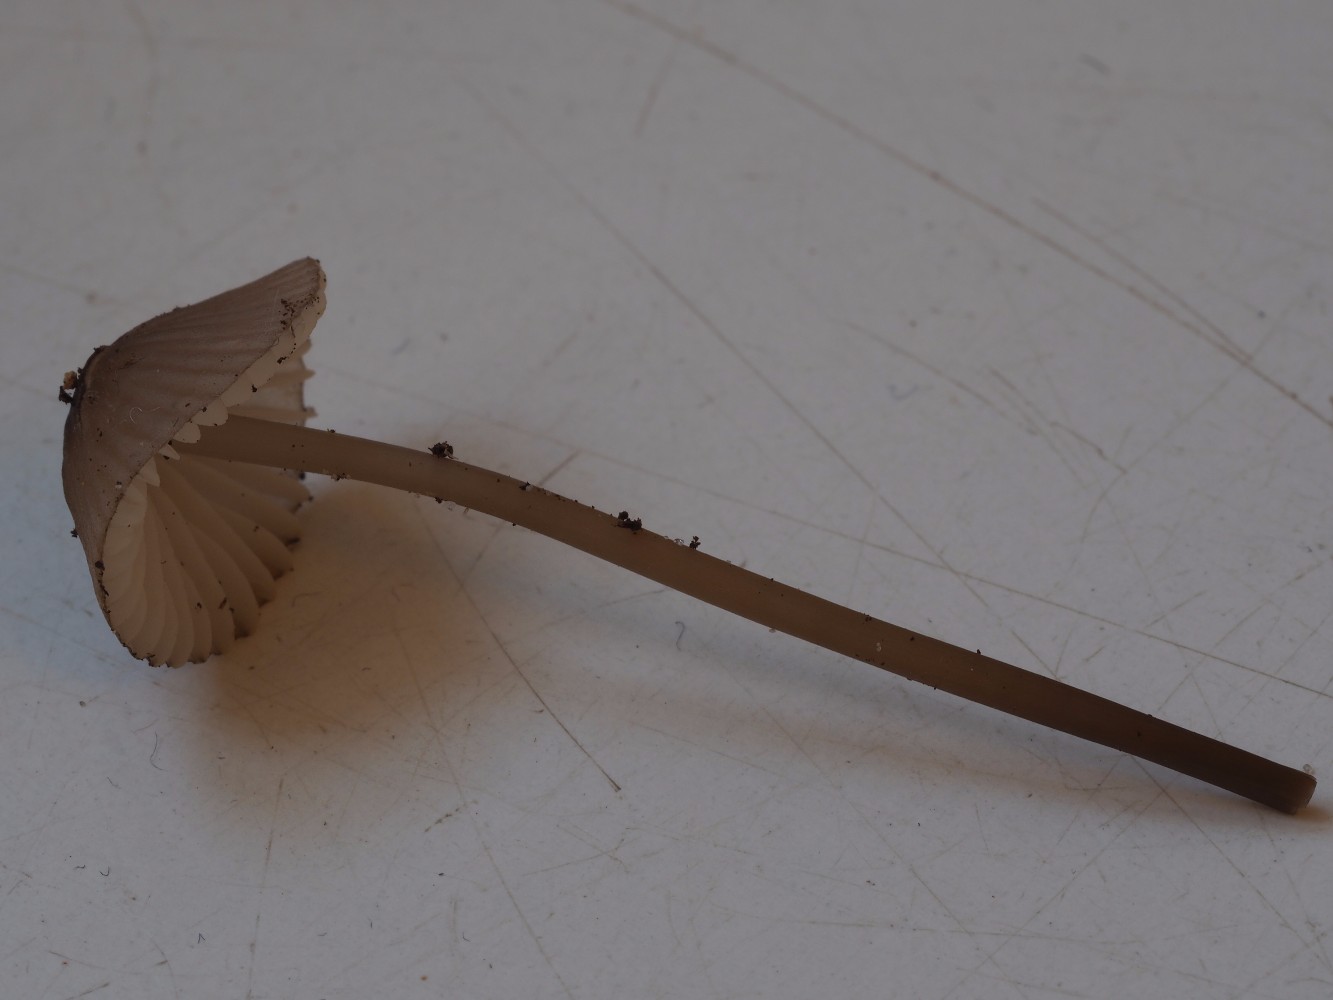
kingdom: Fungi
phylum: Basidiomycota
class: Agaricomycetes
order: Agaricales
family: Mycenaceae
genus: Mycena
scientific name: Mycena galopus
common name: hvidmælket huesvamp
